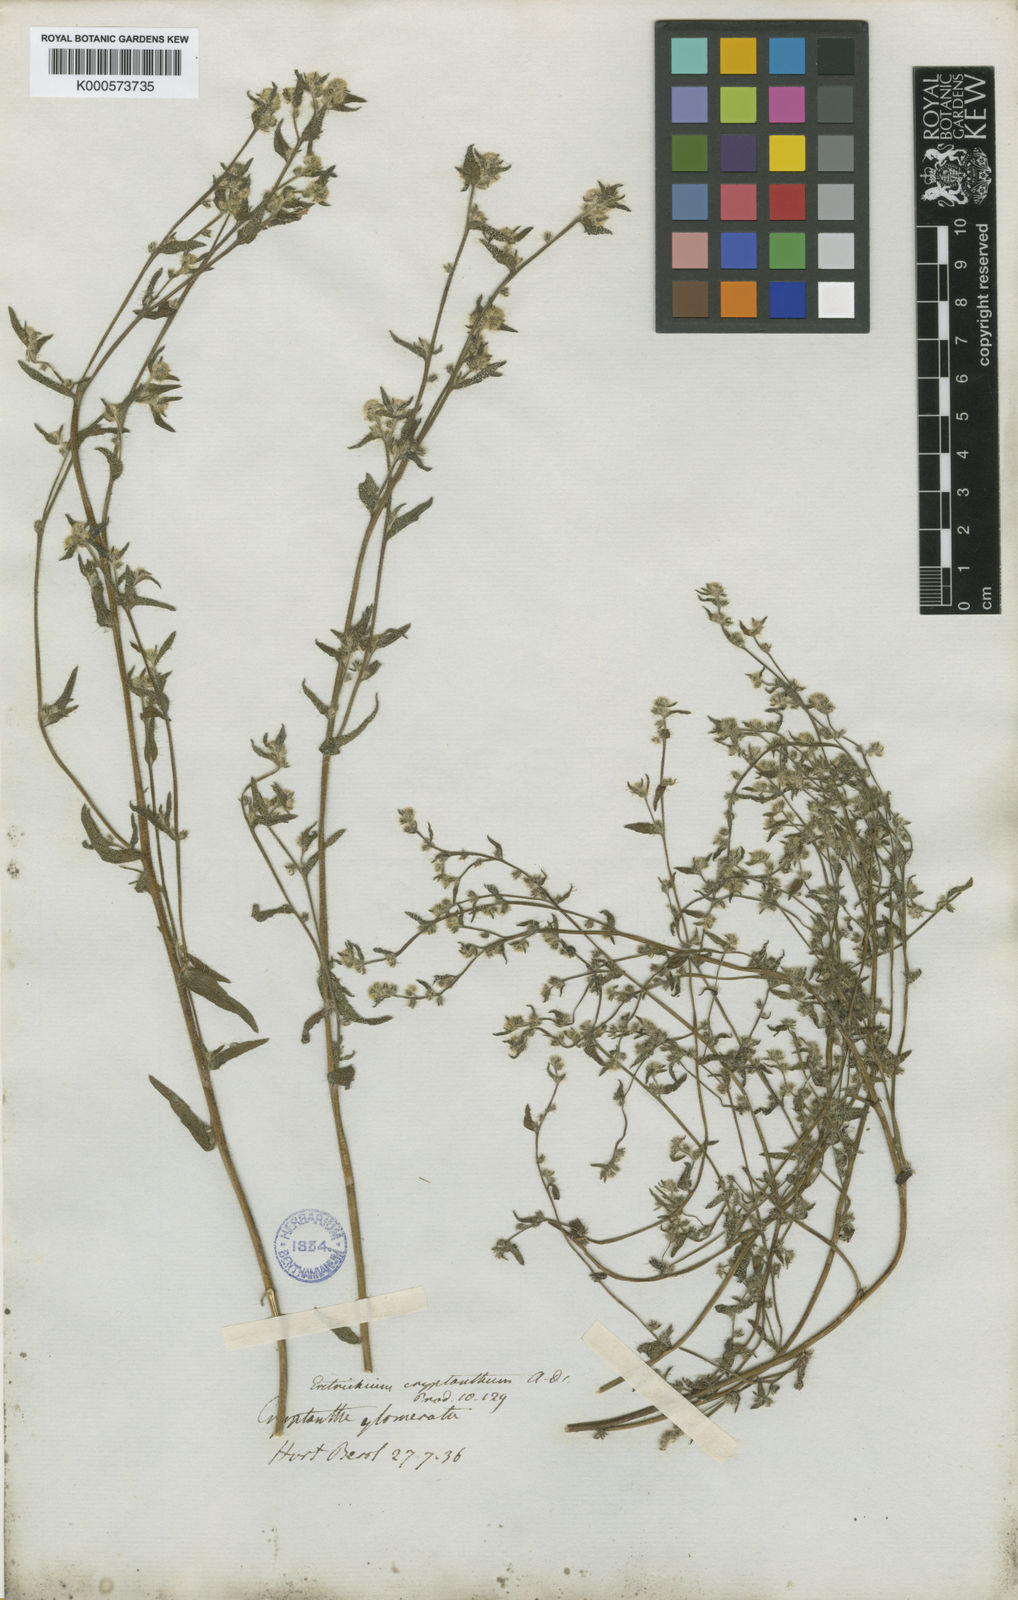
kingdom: Plantae
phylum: Tracheophyta
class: Magnoliopsida
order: Boraginales
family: Boraginaceae
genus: Cryptantha
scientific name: Cryptantha clandestina
